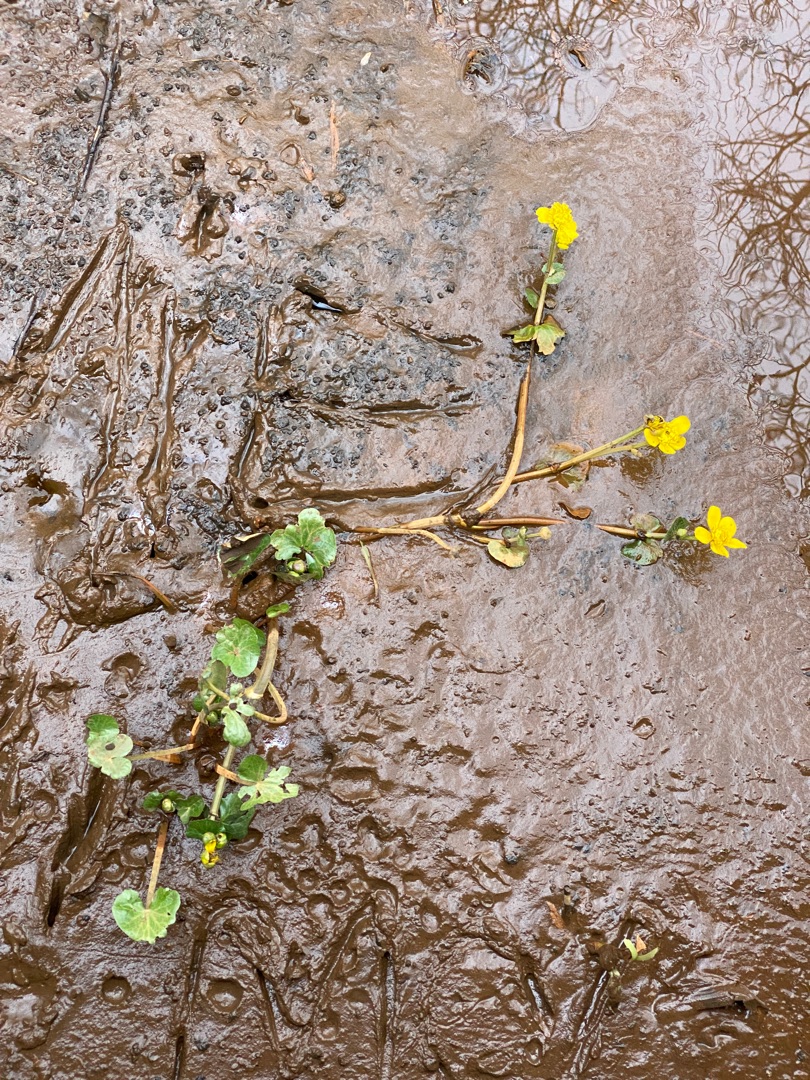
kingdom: Plantae
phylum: Tracheophyta
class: Magnoliopsida
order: Ranunculales
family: Ranunculaceae
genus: Caltha
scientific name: Caltha palustris
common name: Krybende kabbeleje
